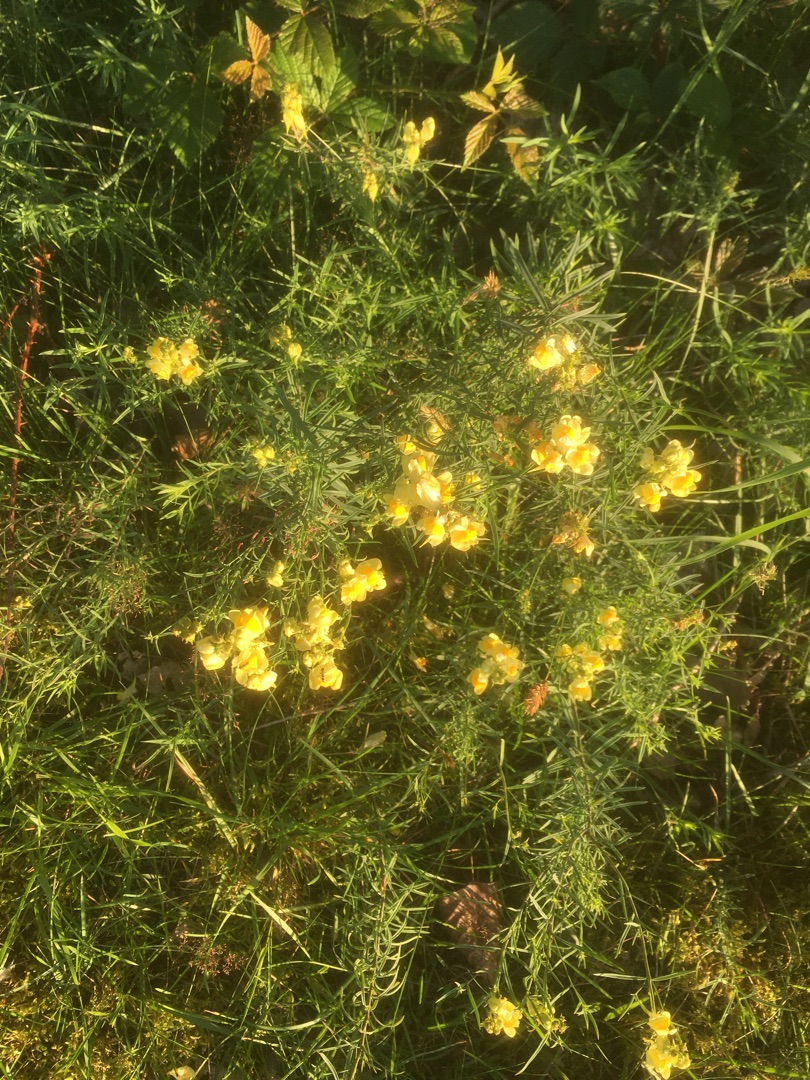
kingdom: Plantae
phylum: Tracheophyta
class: Magnoliopsida
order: Lamiales
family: Plantaginaceae
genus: Linaria
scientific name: Linaria vulgaris
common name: Almindelig torskemund
